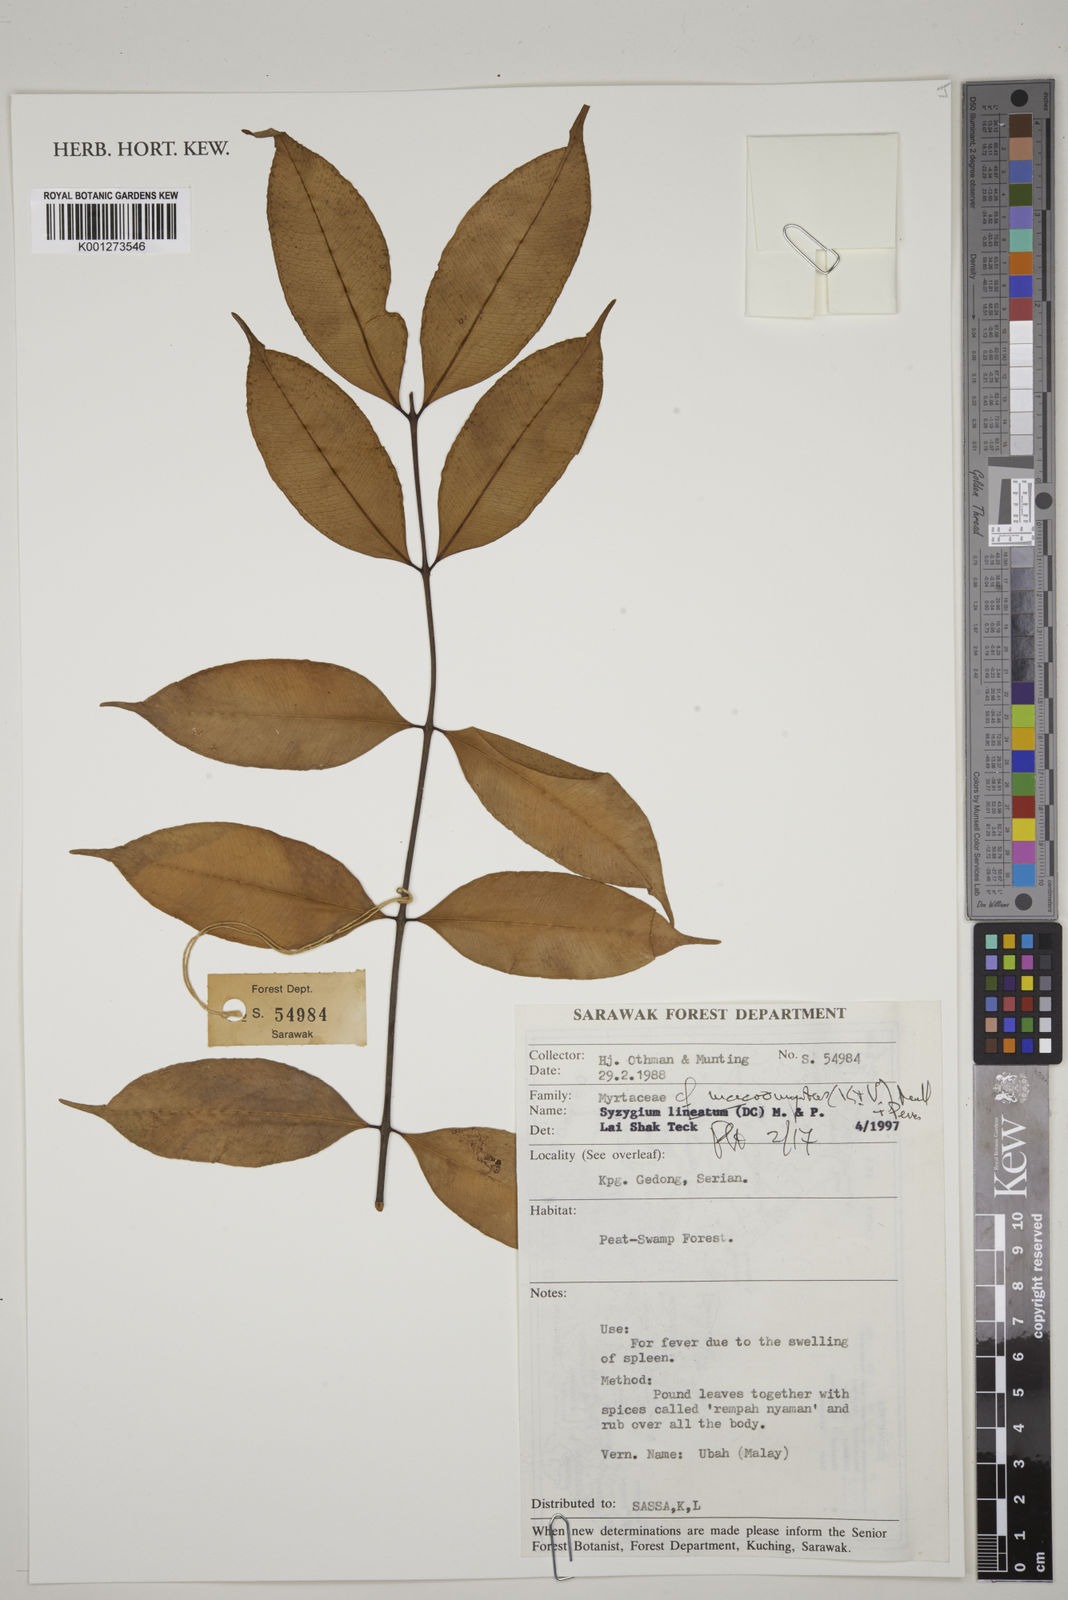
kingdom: Plantae
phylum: Tracheophyta
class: Magnoliopsida
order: Myrtales
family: Myrtaceae
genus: Syzygium
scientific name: Syzygium macromyrtus
